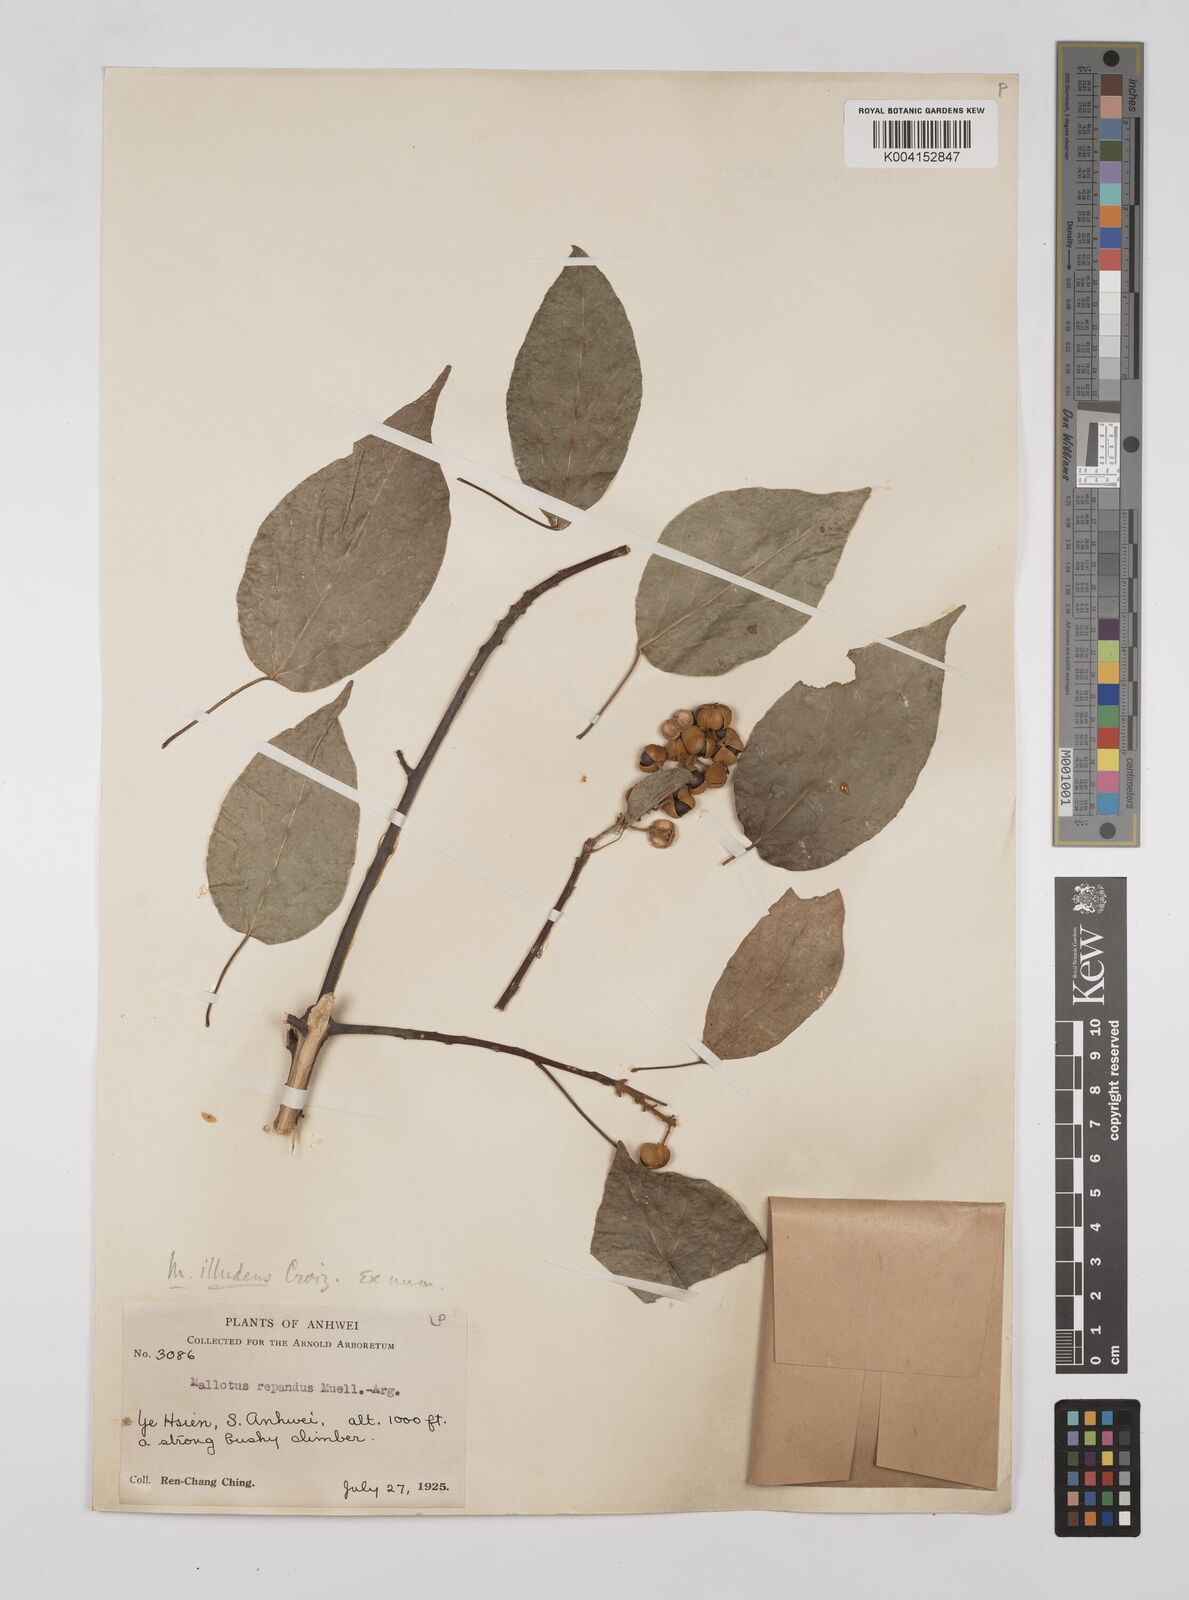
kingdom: Plantae
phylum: Tracheophyta
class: Magnoliopsida
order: Malpighiales
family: Euphorbiaceae
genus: Mallotus
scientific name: Mallotus illudens
